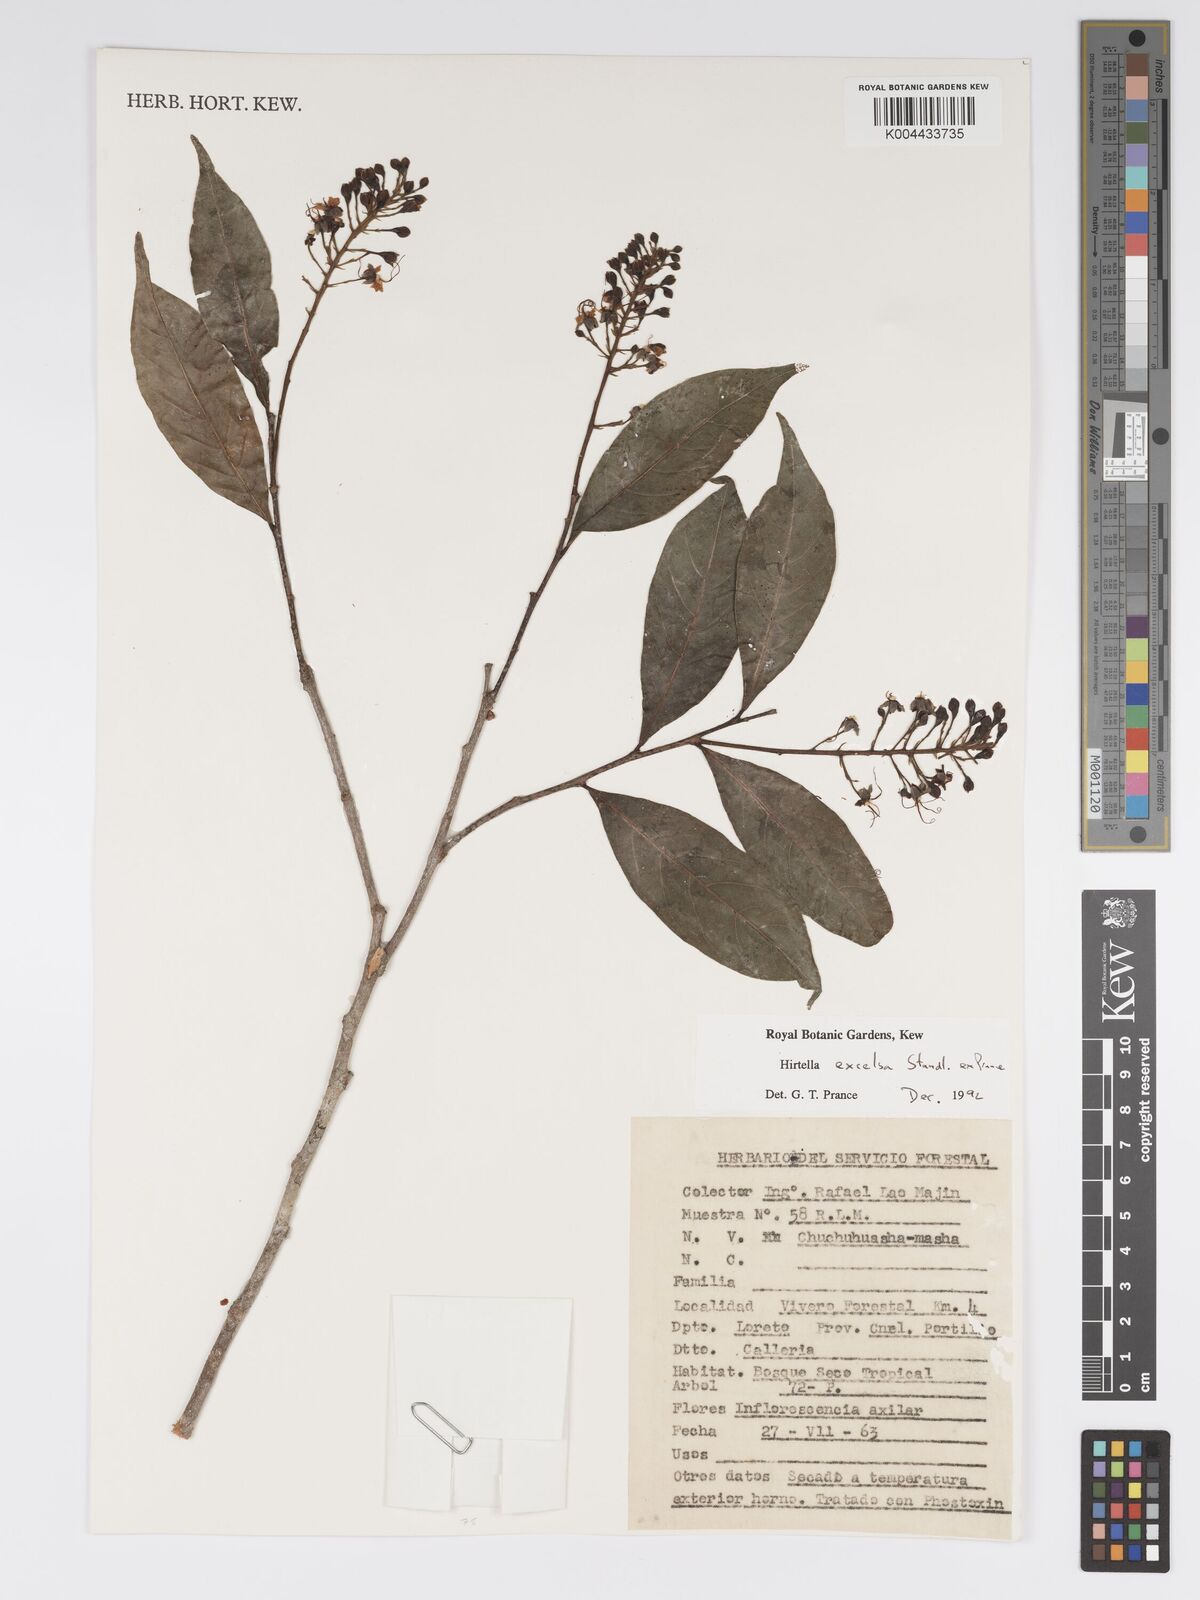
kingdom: Plantae
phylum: Tracheophyta
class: Magnoliopsida
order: Malpighiales
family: Chrysobalanaceae
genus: Hirtella
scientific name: Hirtella excelsa
